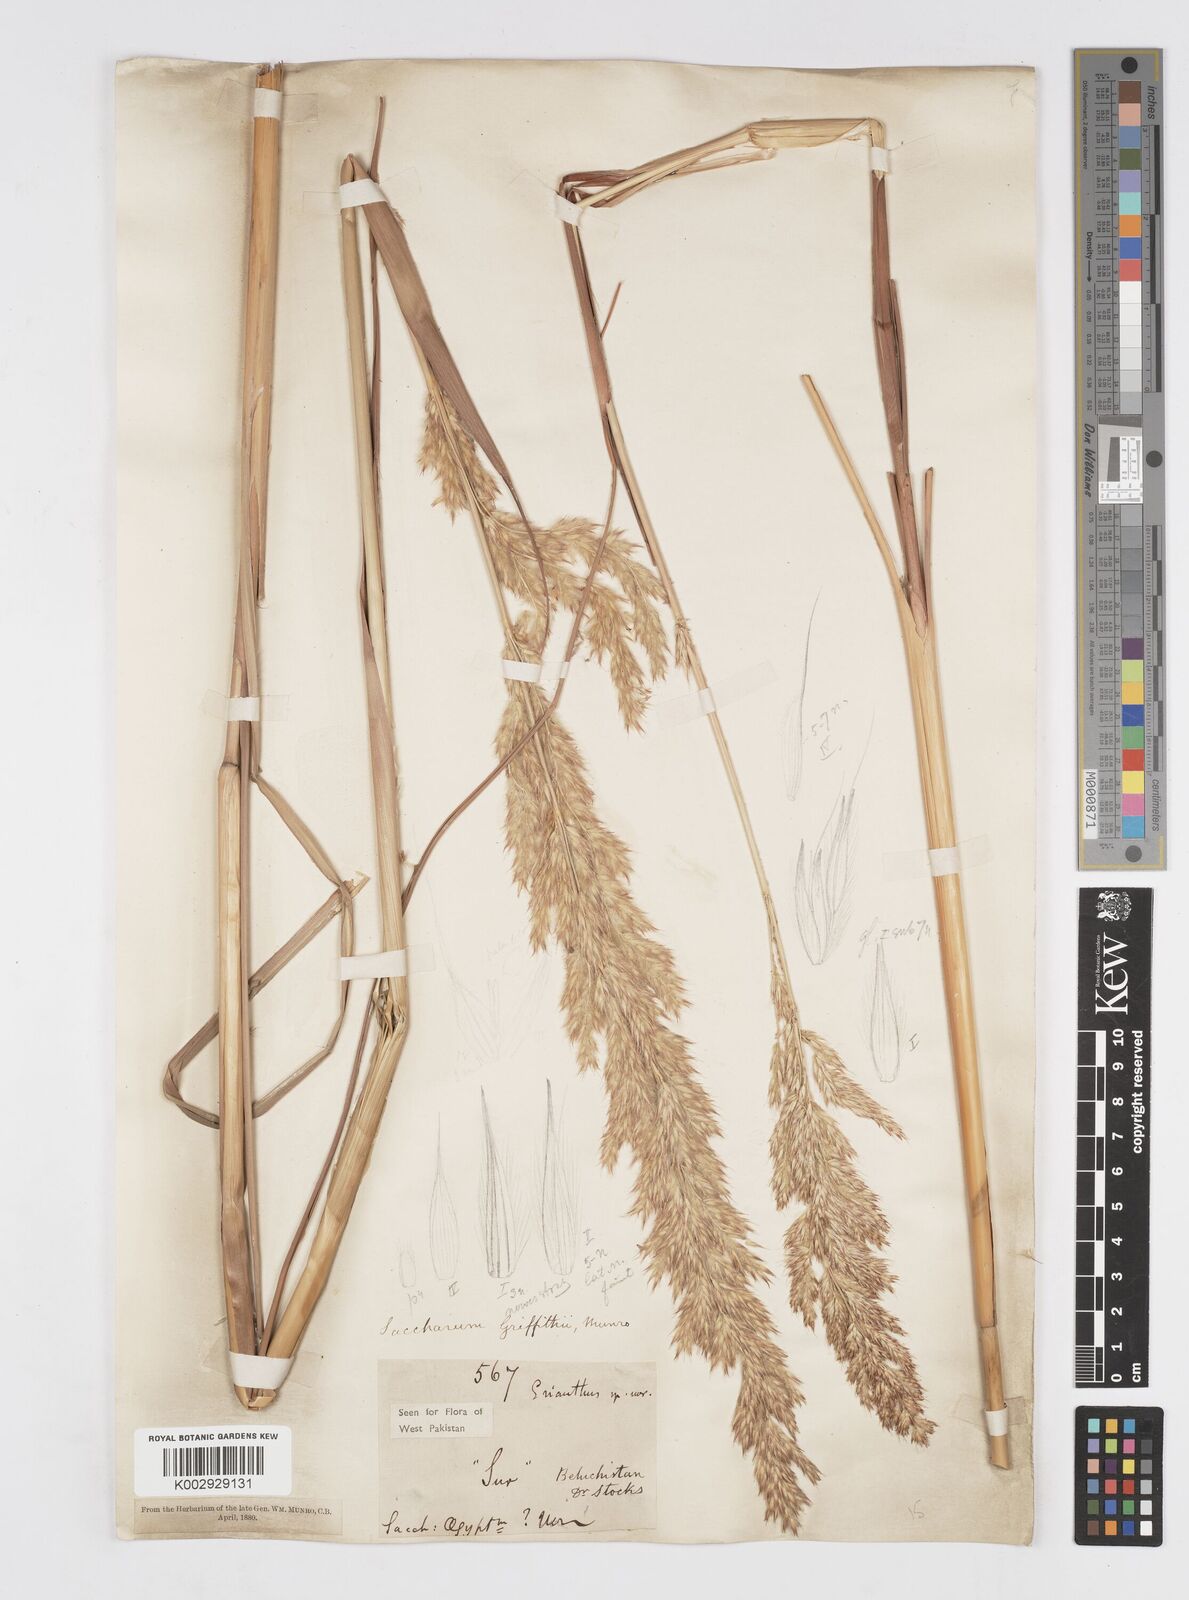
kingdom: Plantae
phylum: Tracheophyta
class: Liliopsida
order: Poales
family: Poaceae
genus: Saccharum
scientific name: Saccharum griffithii
